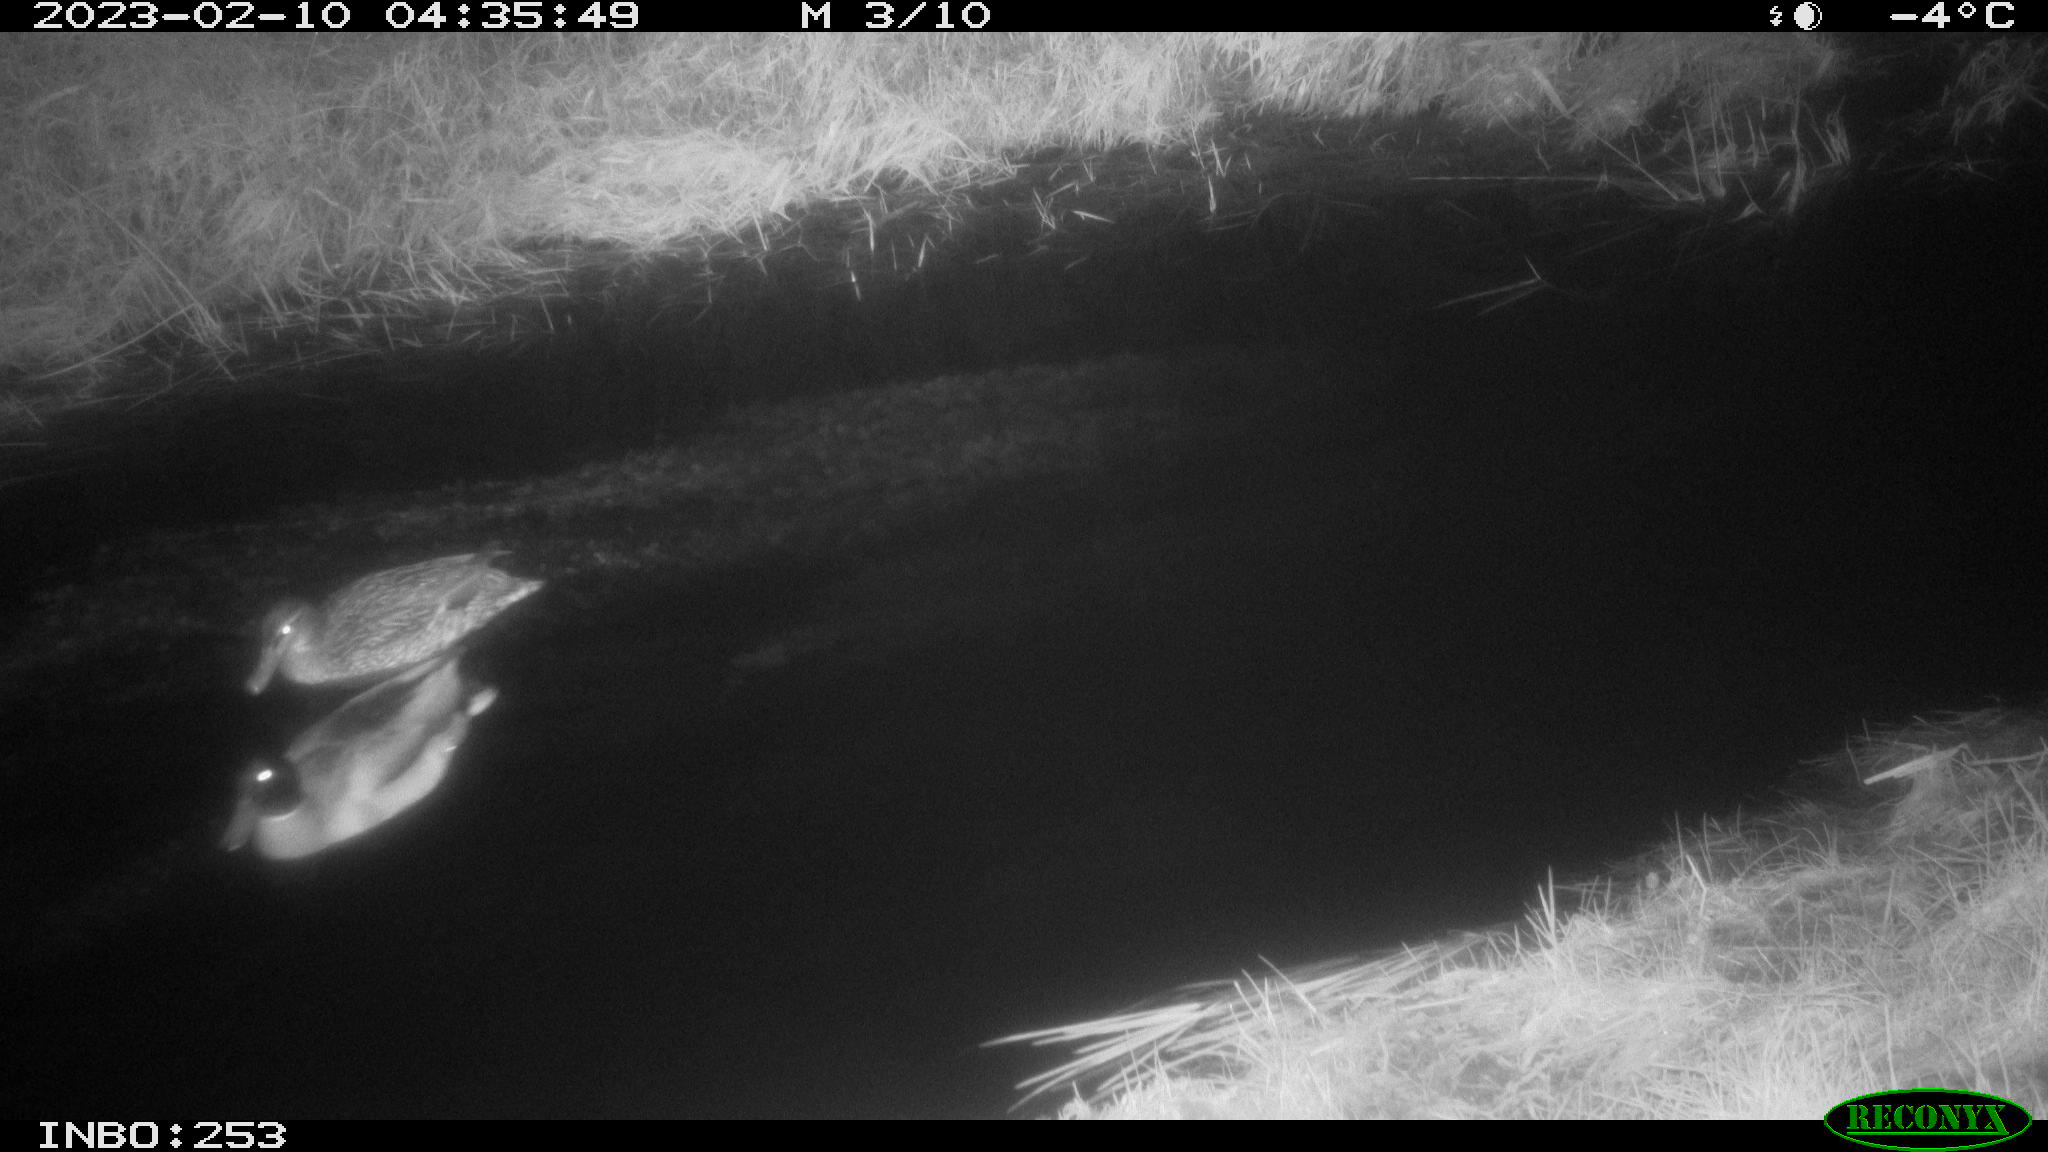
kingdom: Animalia
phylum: Chordata
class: Aves
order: Anseriformes
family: Anatidae
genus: Anas
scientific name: Anas
